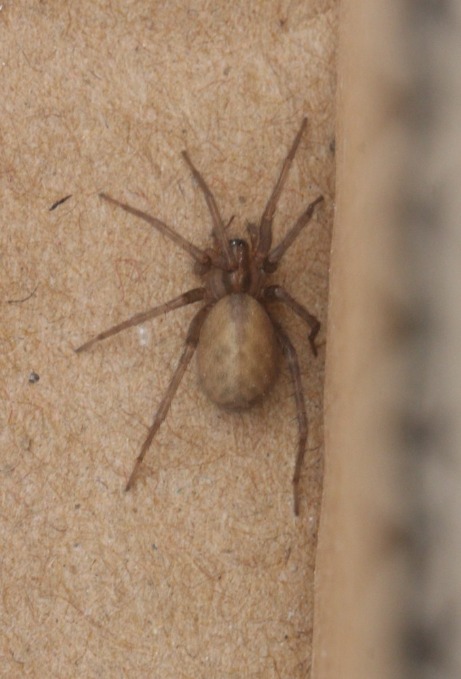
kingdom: Animalia
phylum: Arthropoda
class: Arachnida
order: Araneae
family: Agelenidae
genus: Tegenaria
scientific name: Tegenaria domestica
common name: Lille husedderkop
